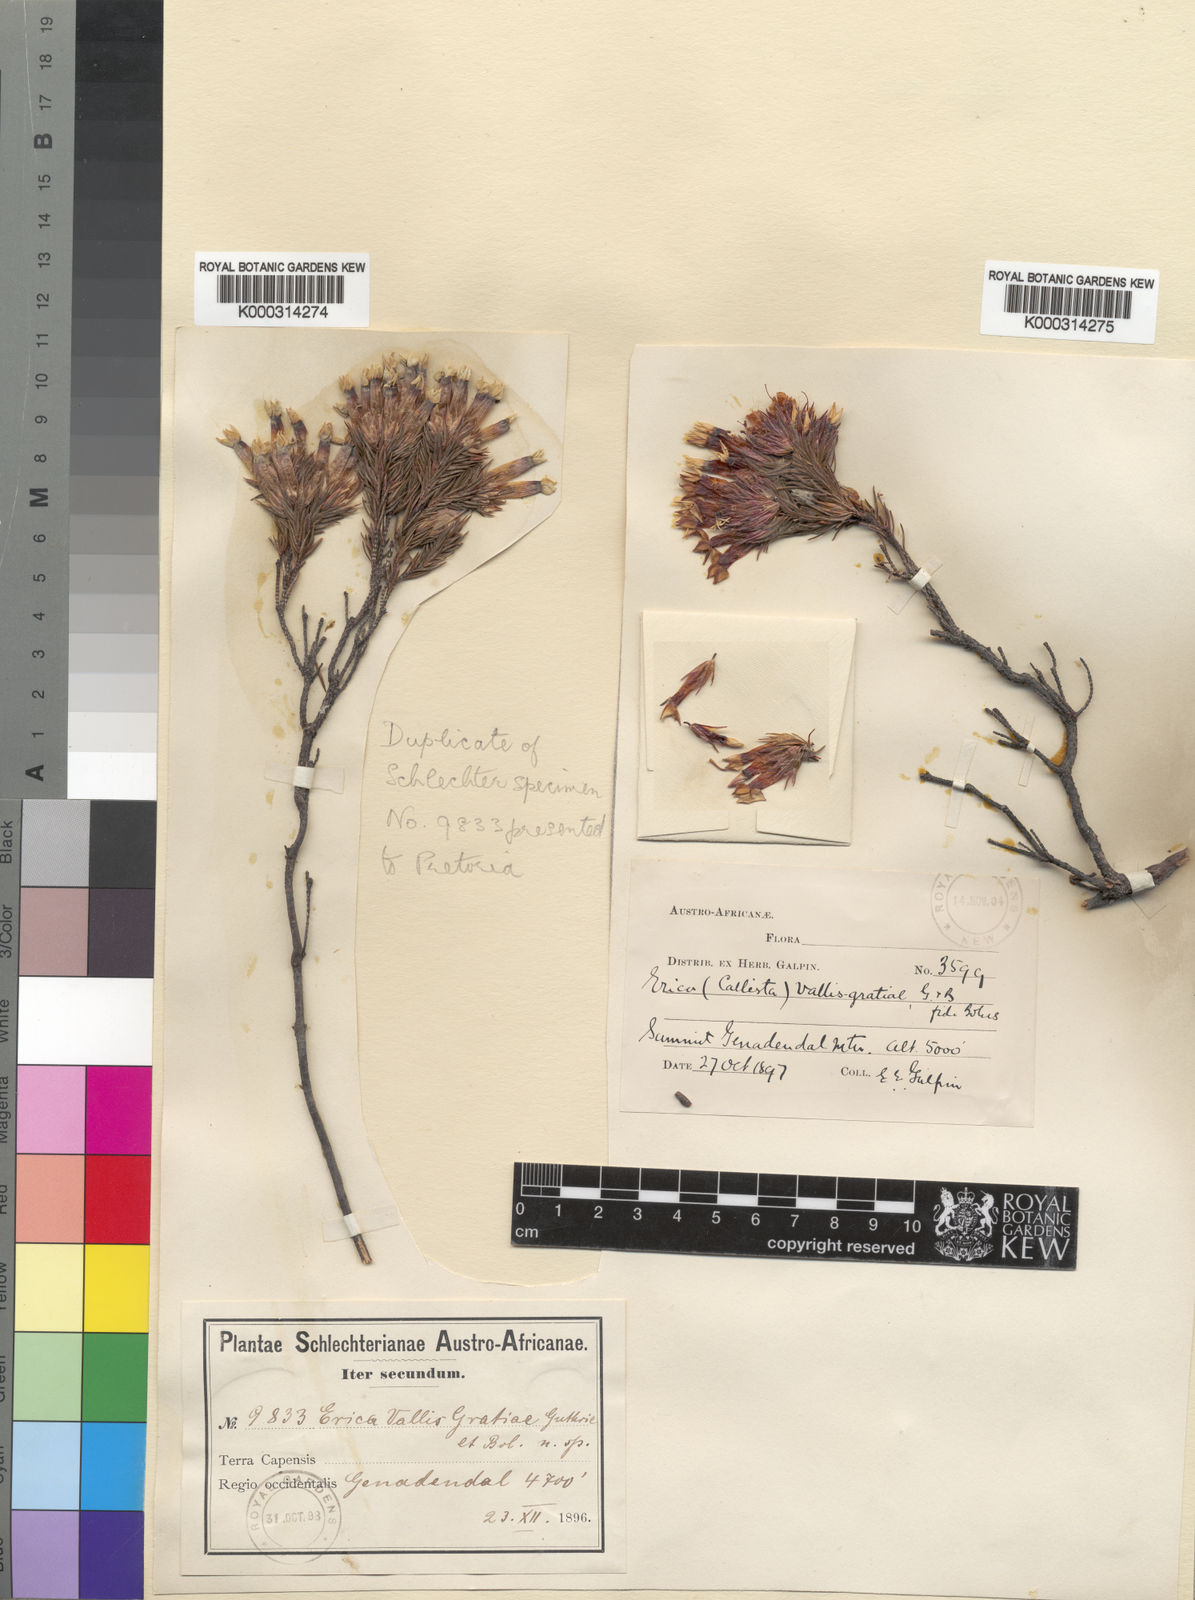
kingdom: Plantae
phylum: Tracheophyta
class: Magnoliopsida
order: Ericales
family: Ericaceae
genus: Erica
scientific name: Erica vallis-gratiae
